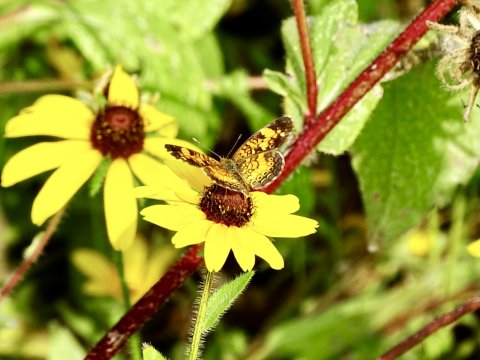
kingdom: Animalia
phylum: Arthropoda
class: Insecta
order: Lepidoptera
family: Nymphalidae
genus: Phyciodes
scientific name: Phyciodes tharos
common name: Pearl Crescent
